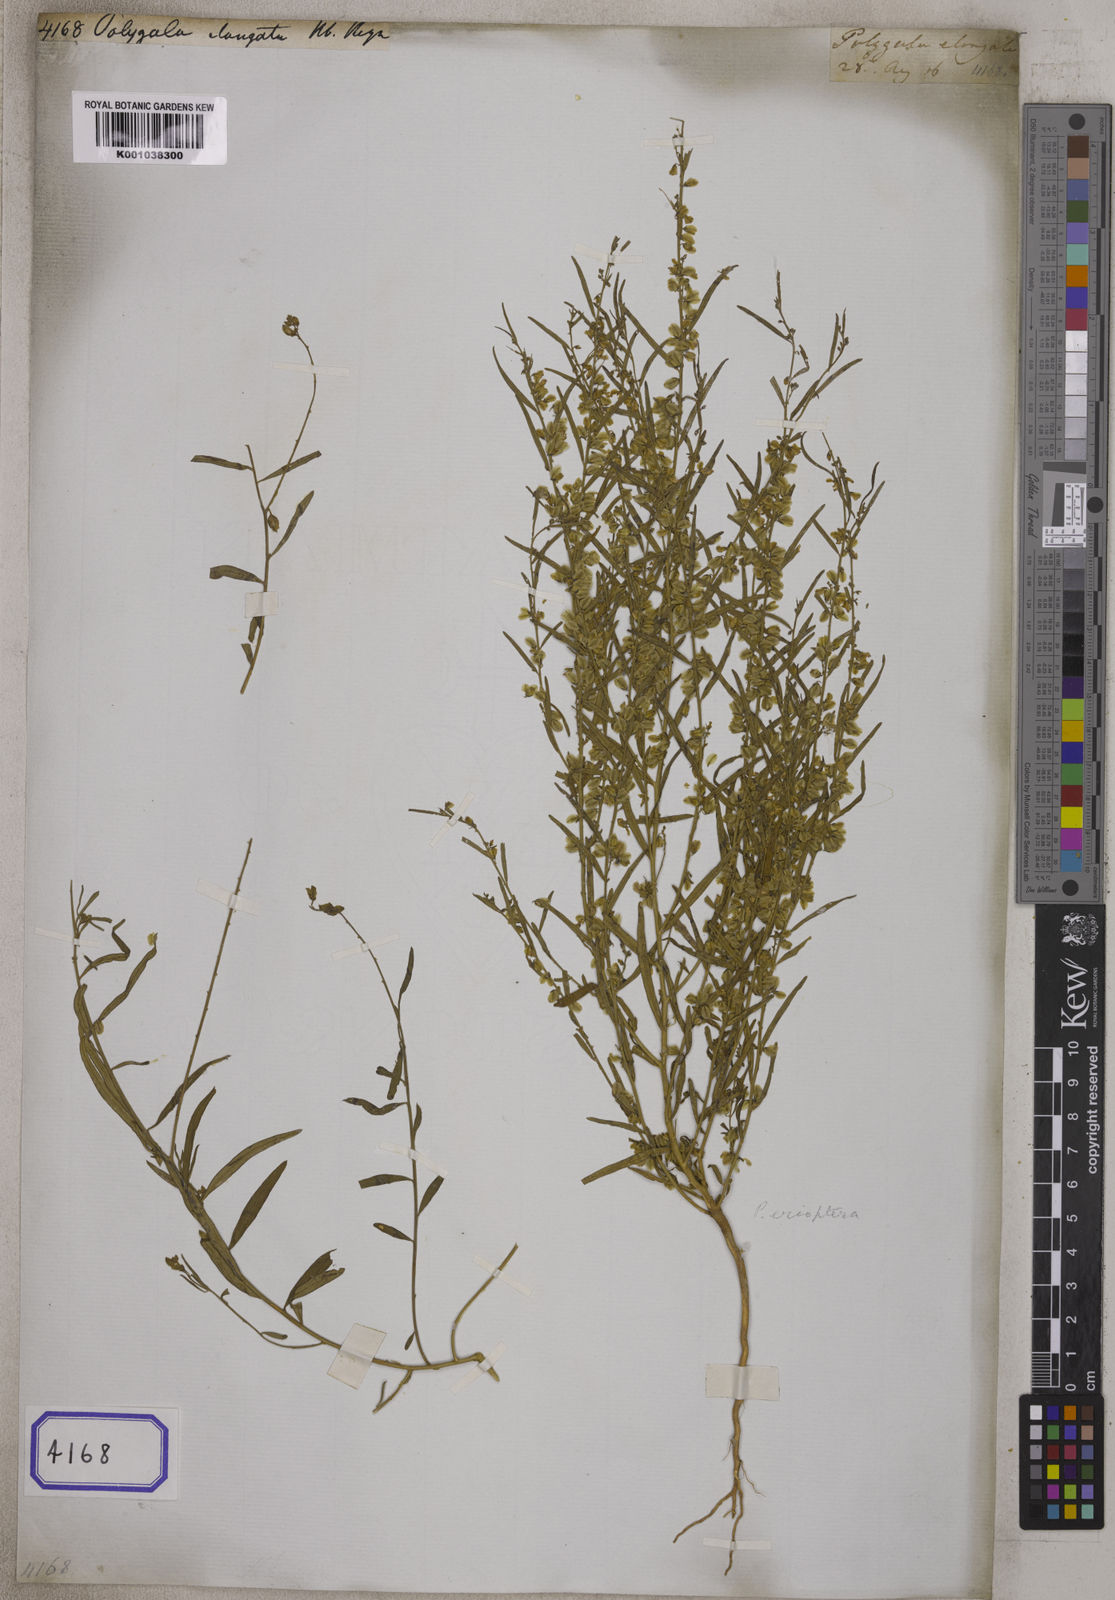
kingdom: Plantae
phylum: Tracheophyta
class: Magnoliopsida
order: Fabales
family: Polygalaceae
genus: Polygala
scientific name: Polygala glaucoides
